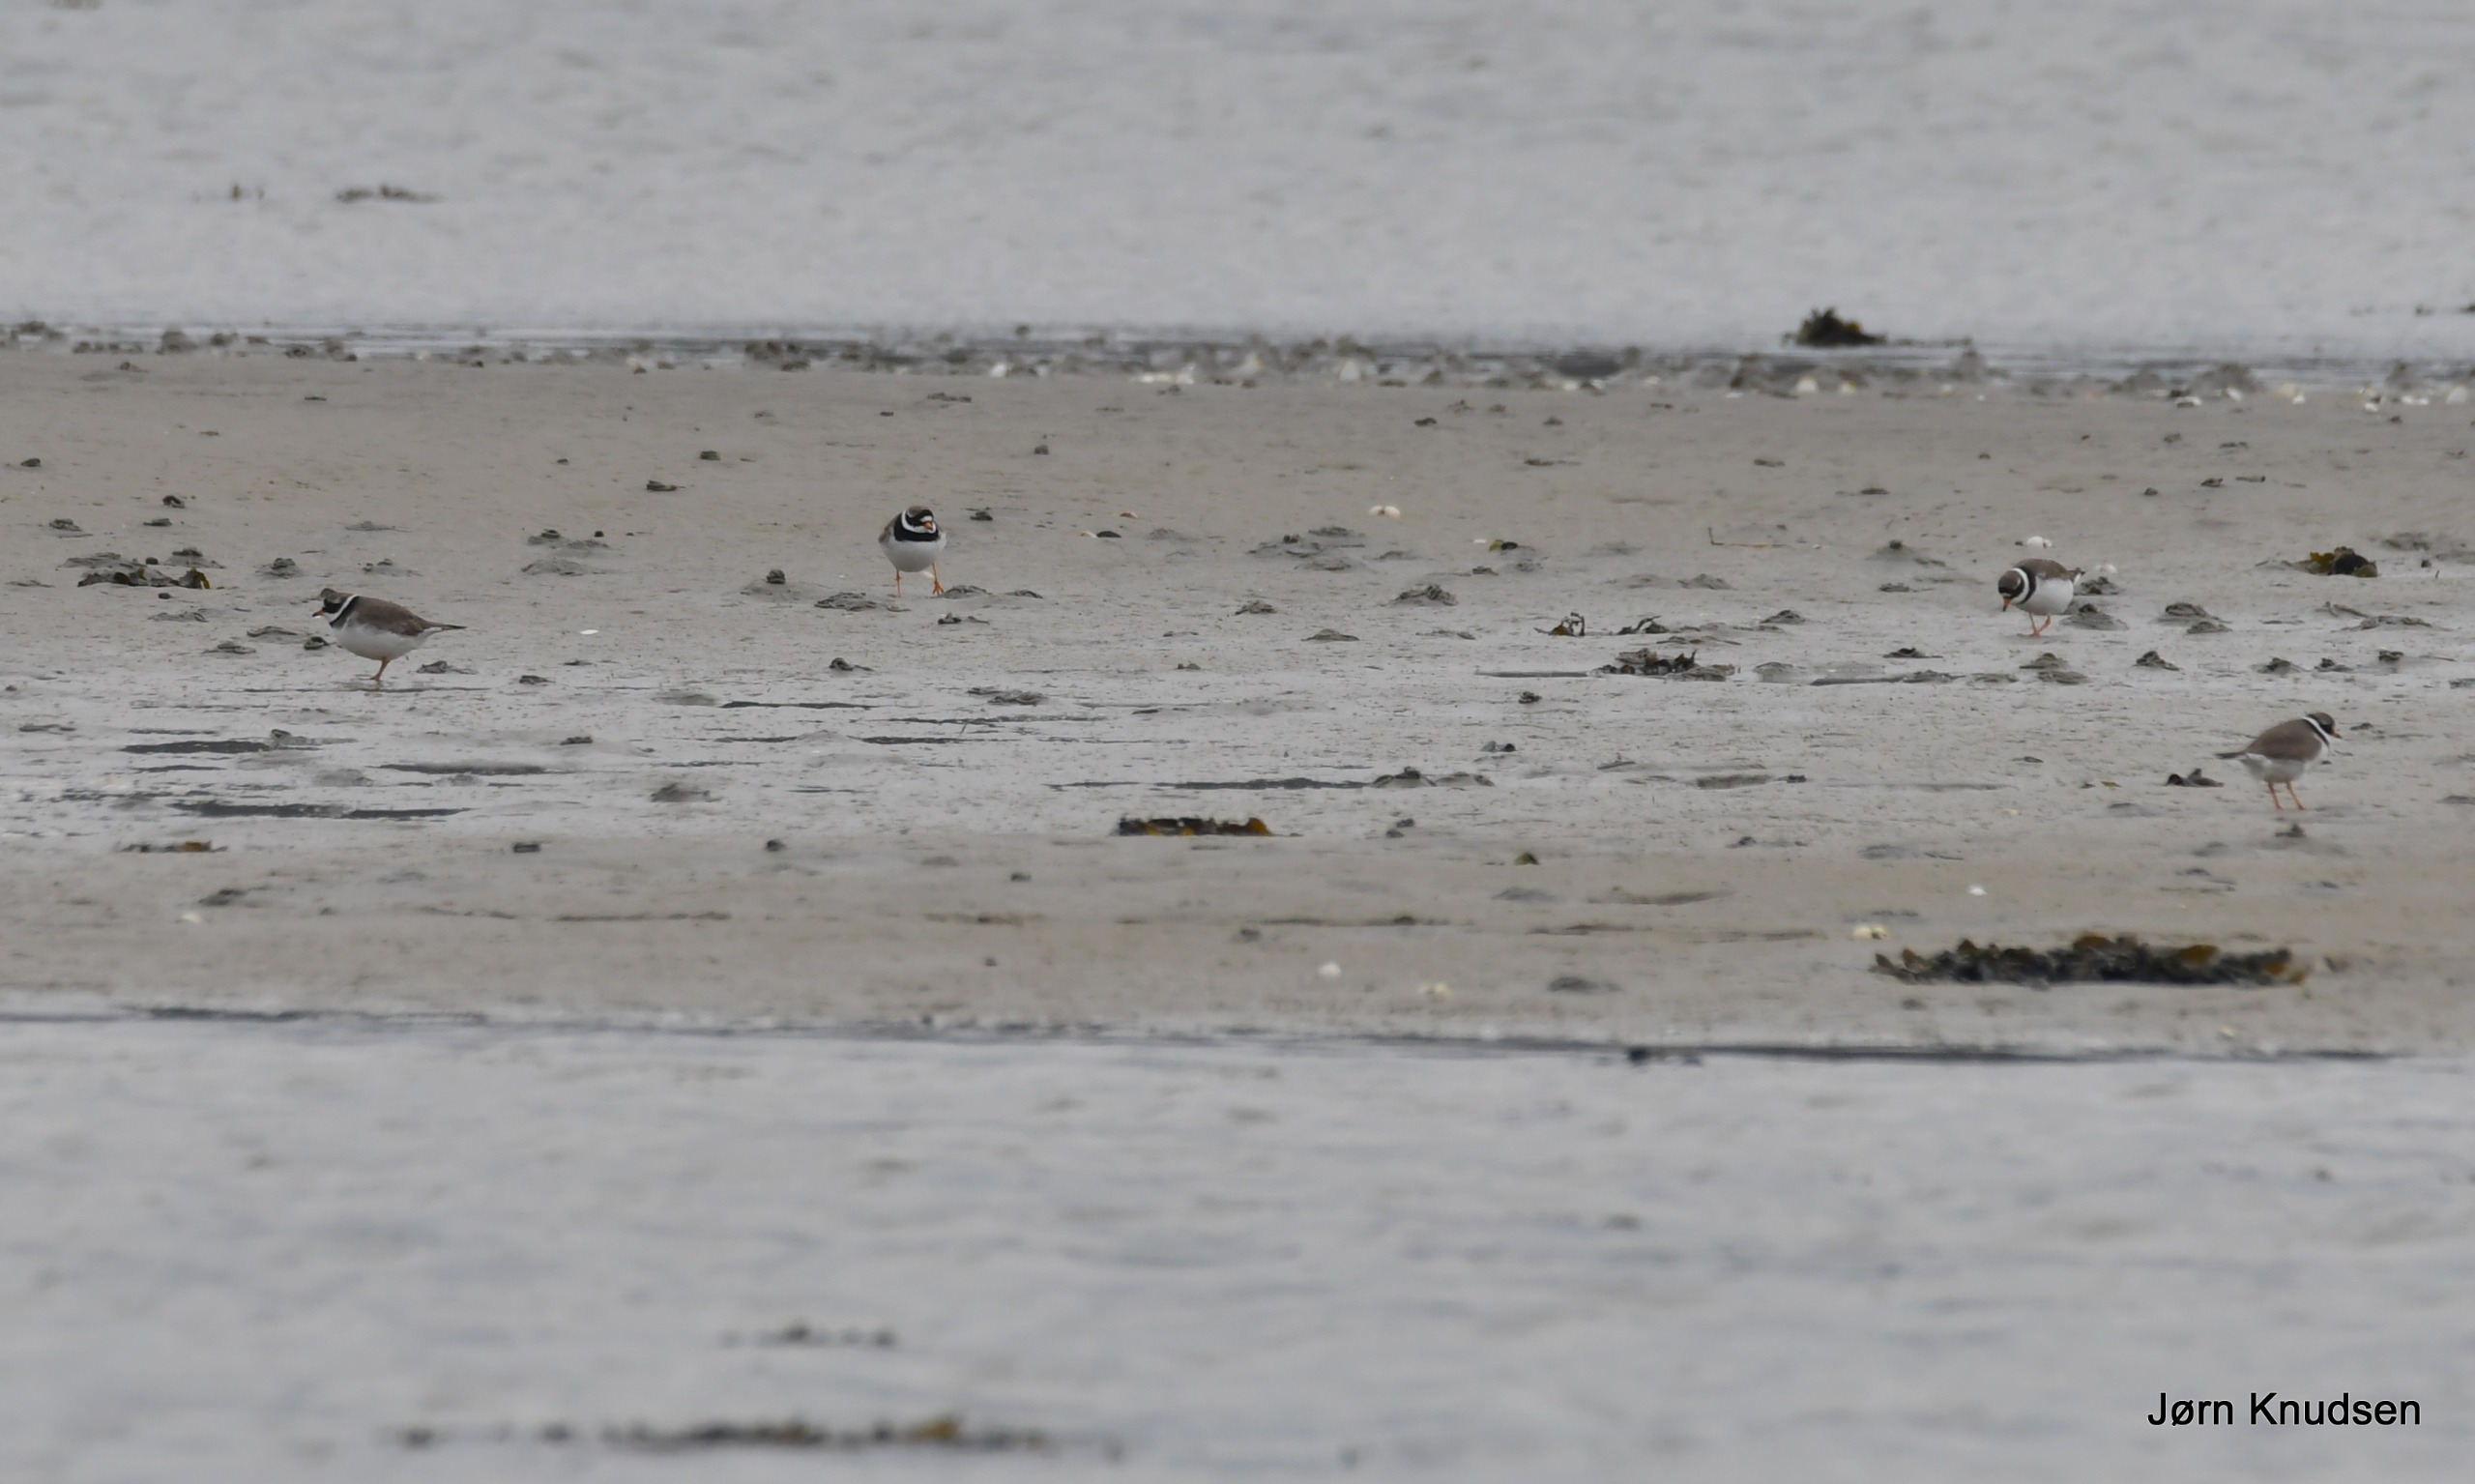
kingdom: Animalia
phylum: Chordata
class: Aves
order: Charadriiformes
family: Charadriidae
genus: Charadrius
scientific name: Charadrius hiaticula
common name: Stor præstekrave
